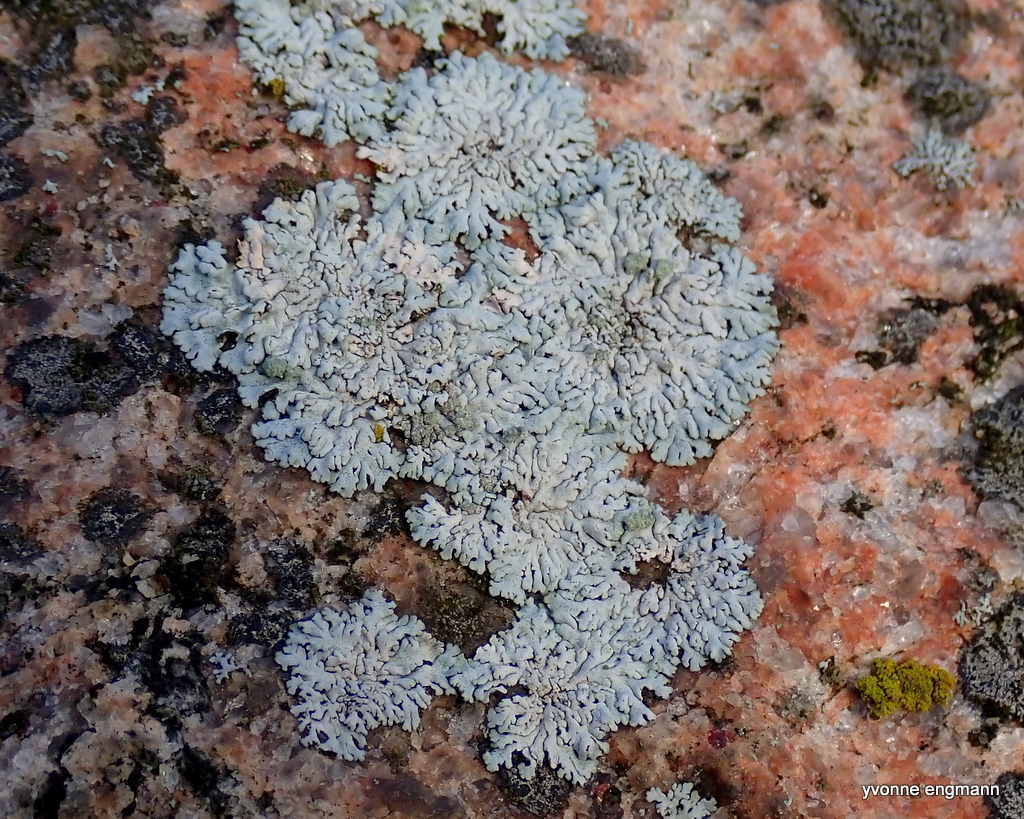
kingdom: Fungi
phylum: Ascomycota
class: Lecanoromycetes
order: Caliciales
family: Physciaceae
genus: Physcia
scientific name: Physcia caesia
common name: blågrå rosetlav
